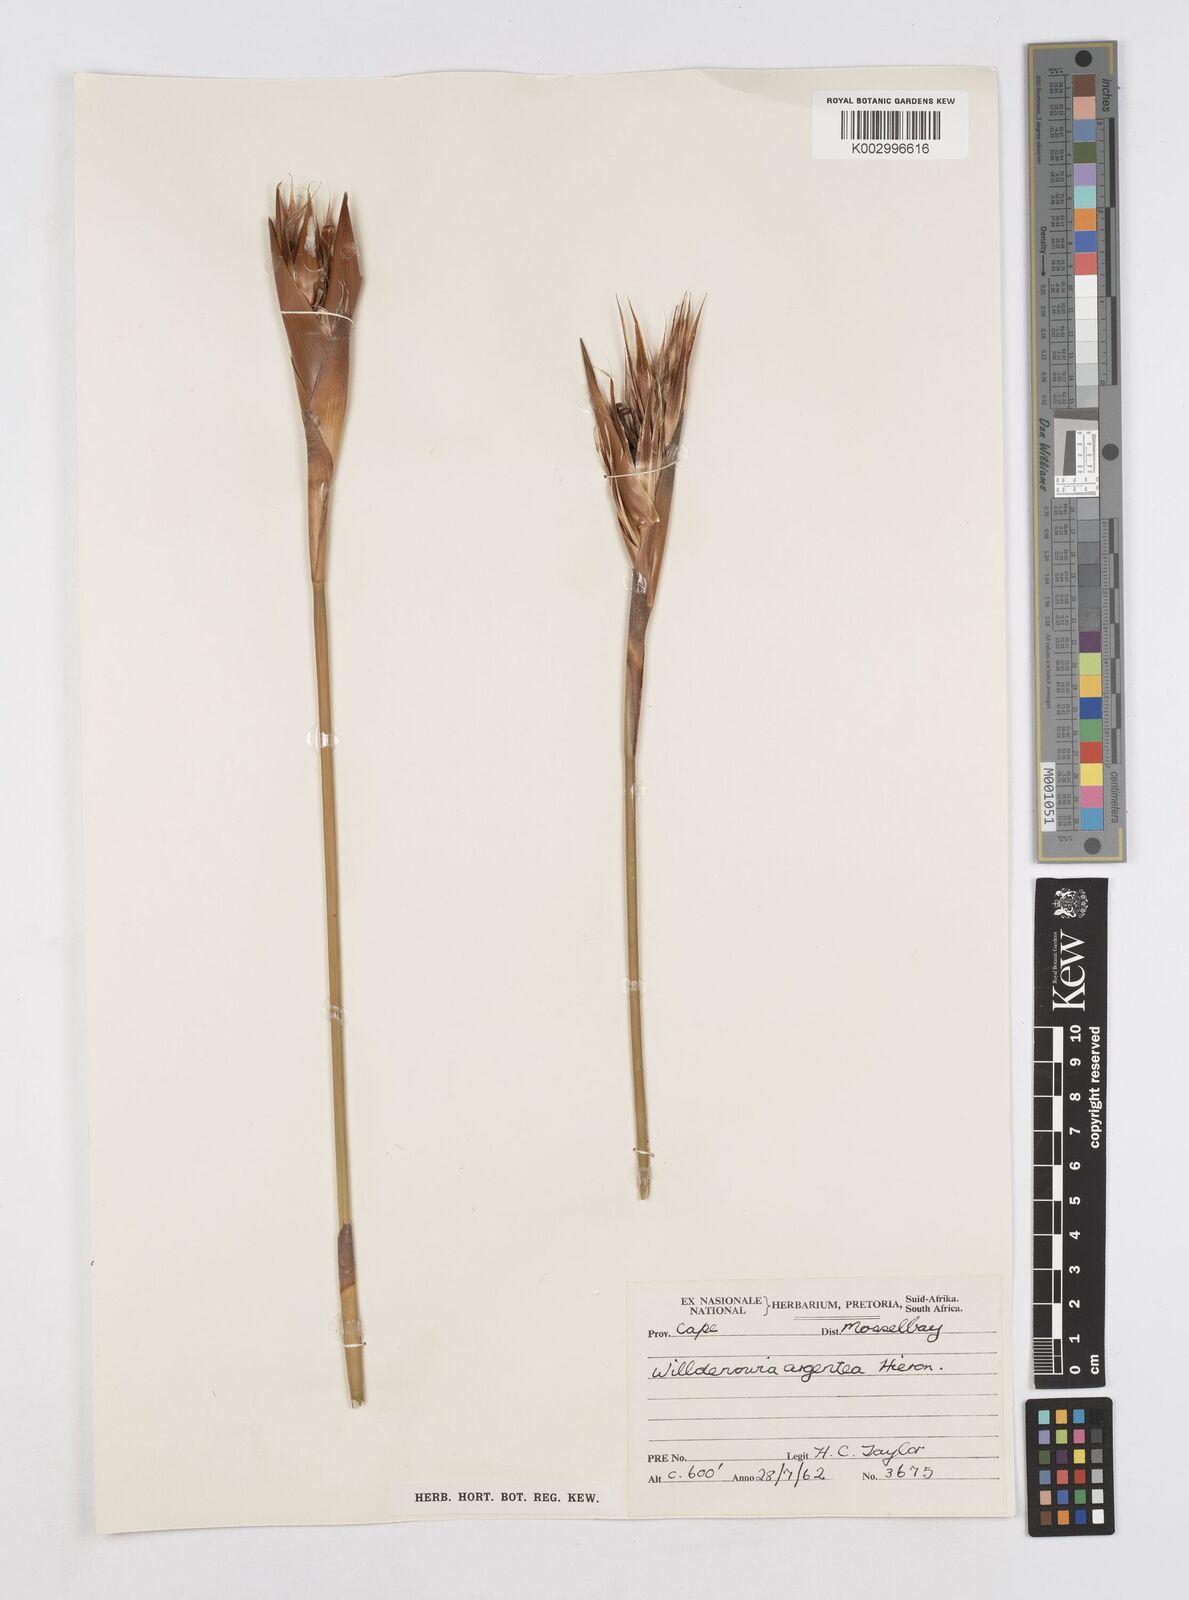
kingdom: Plantae
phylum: Tracheophyta
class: Liliopsida
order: Poales
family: Restionaceae
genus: Ceratocaryum
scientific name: Ceratocaryum argenteum
